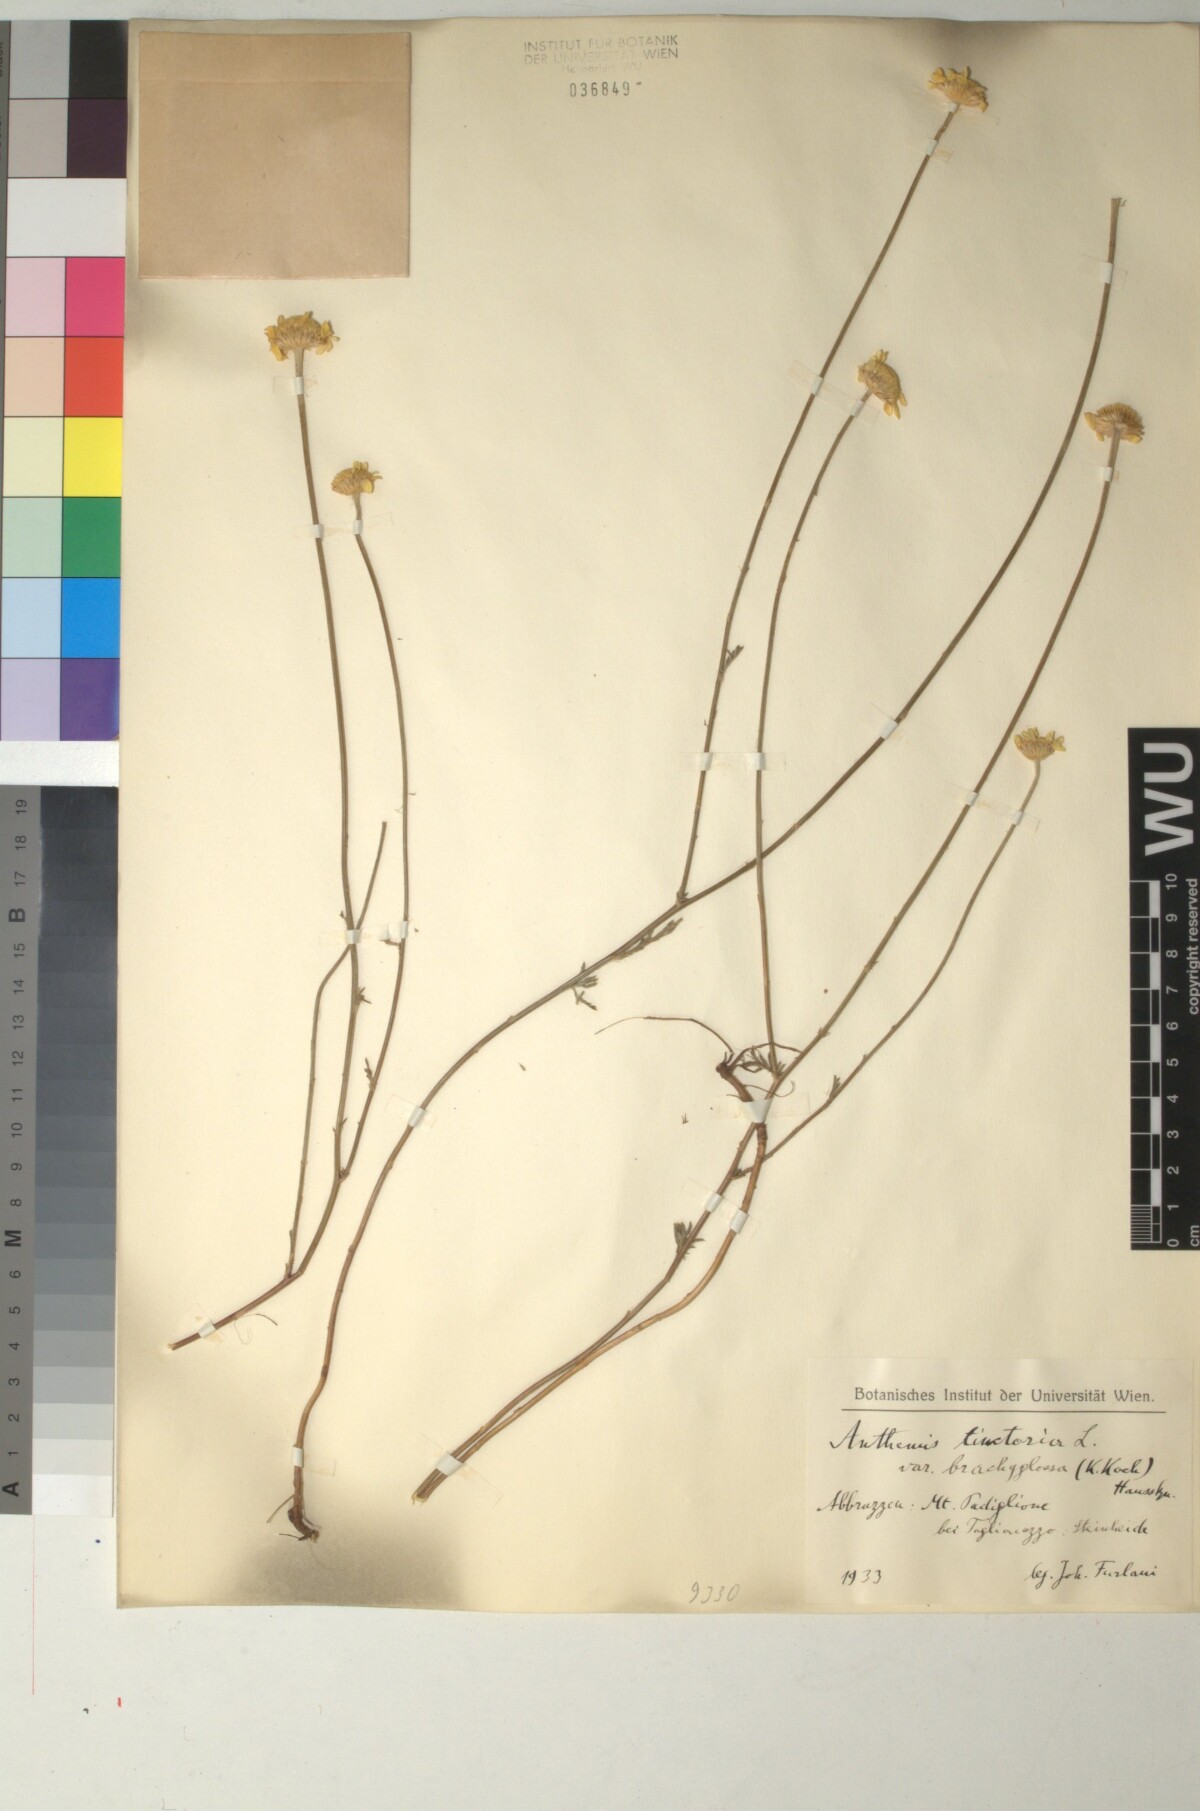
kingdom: Plantae
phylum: Tracheophyta
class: Magnoliopsida
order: Asterales
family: Asteraceae
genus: Cota
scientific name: Cota tinctoria
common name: Golden chamomile
